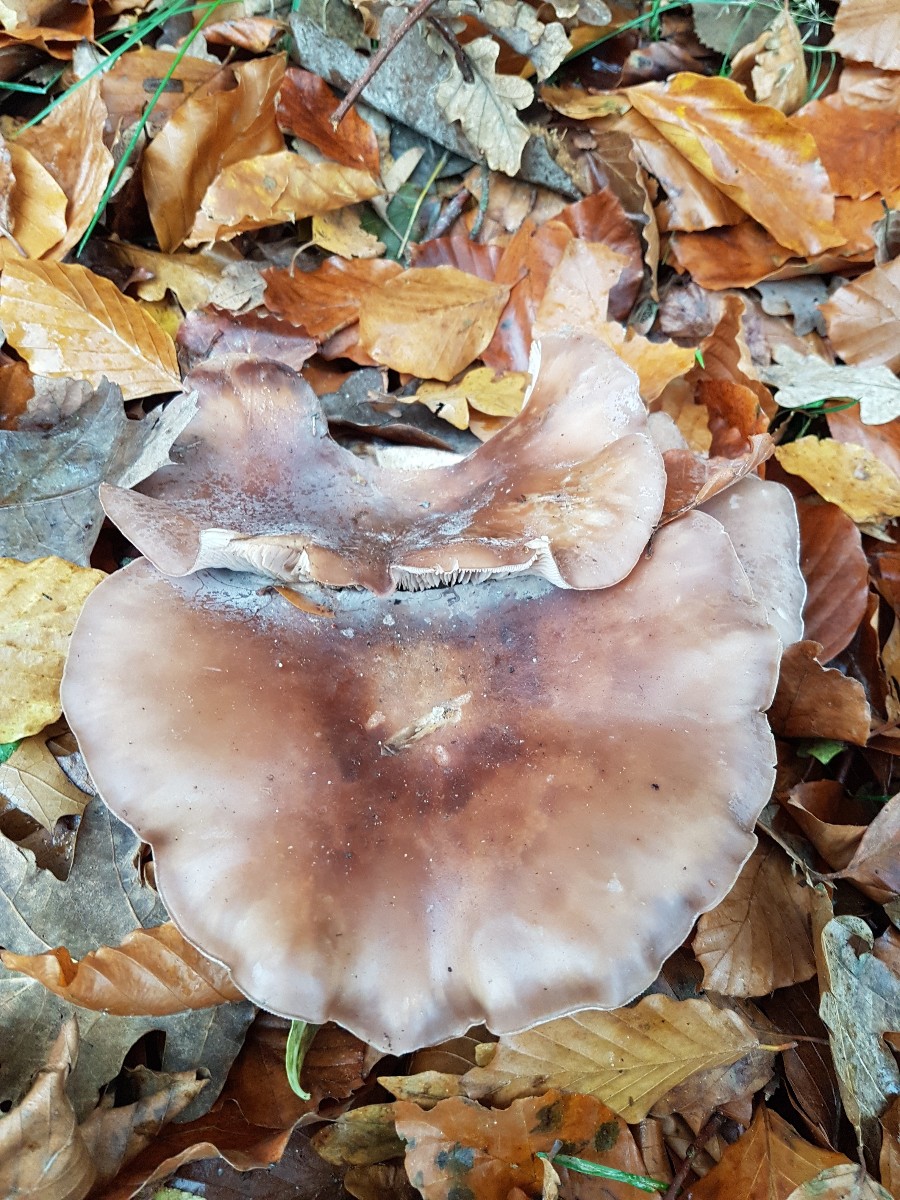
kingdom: Fungi
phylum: Basidiomycota
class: Agaricomycetes
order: Agaricales
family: Tricholomataceae
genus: Lepista
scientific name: Lepista personata
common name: bleg hekseringshat
